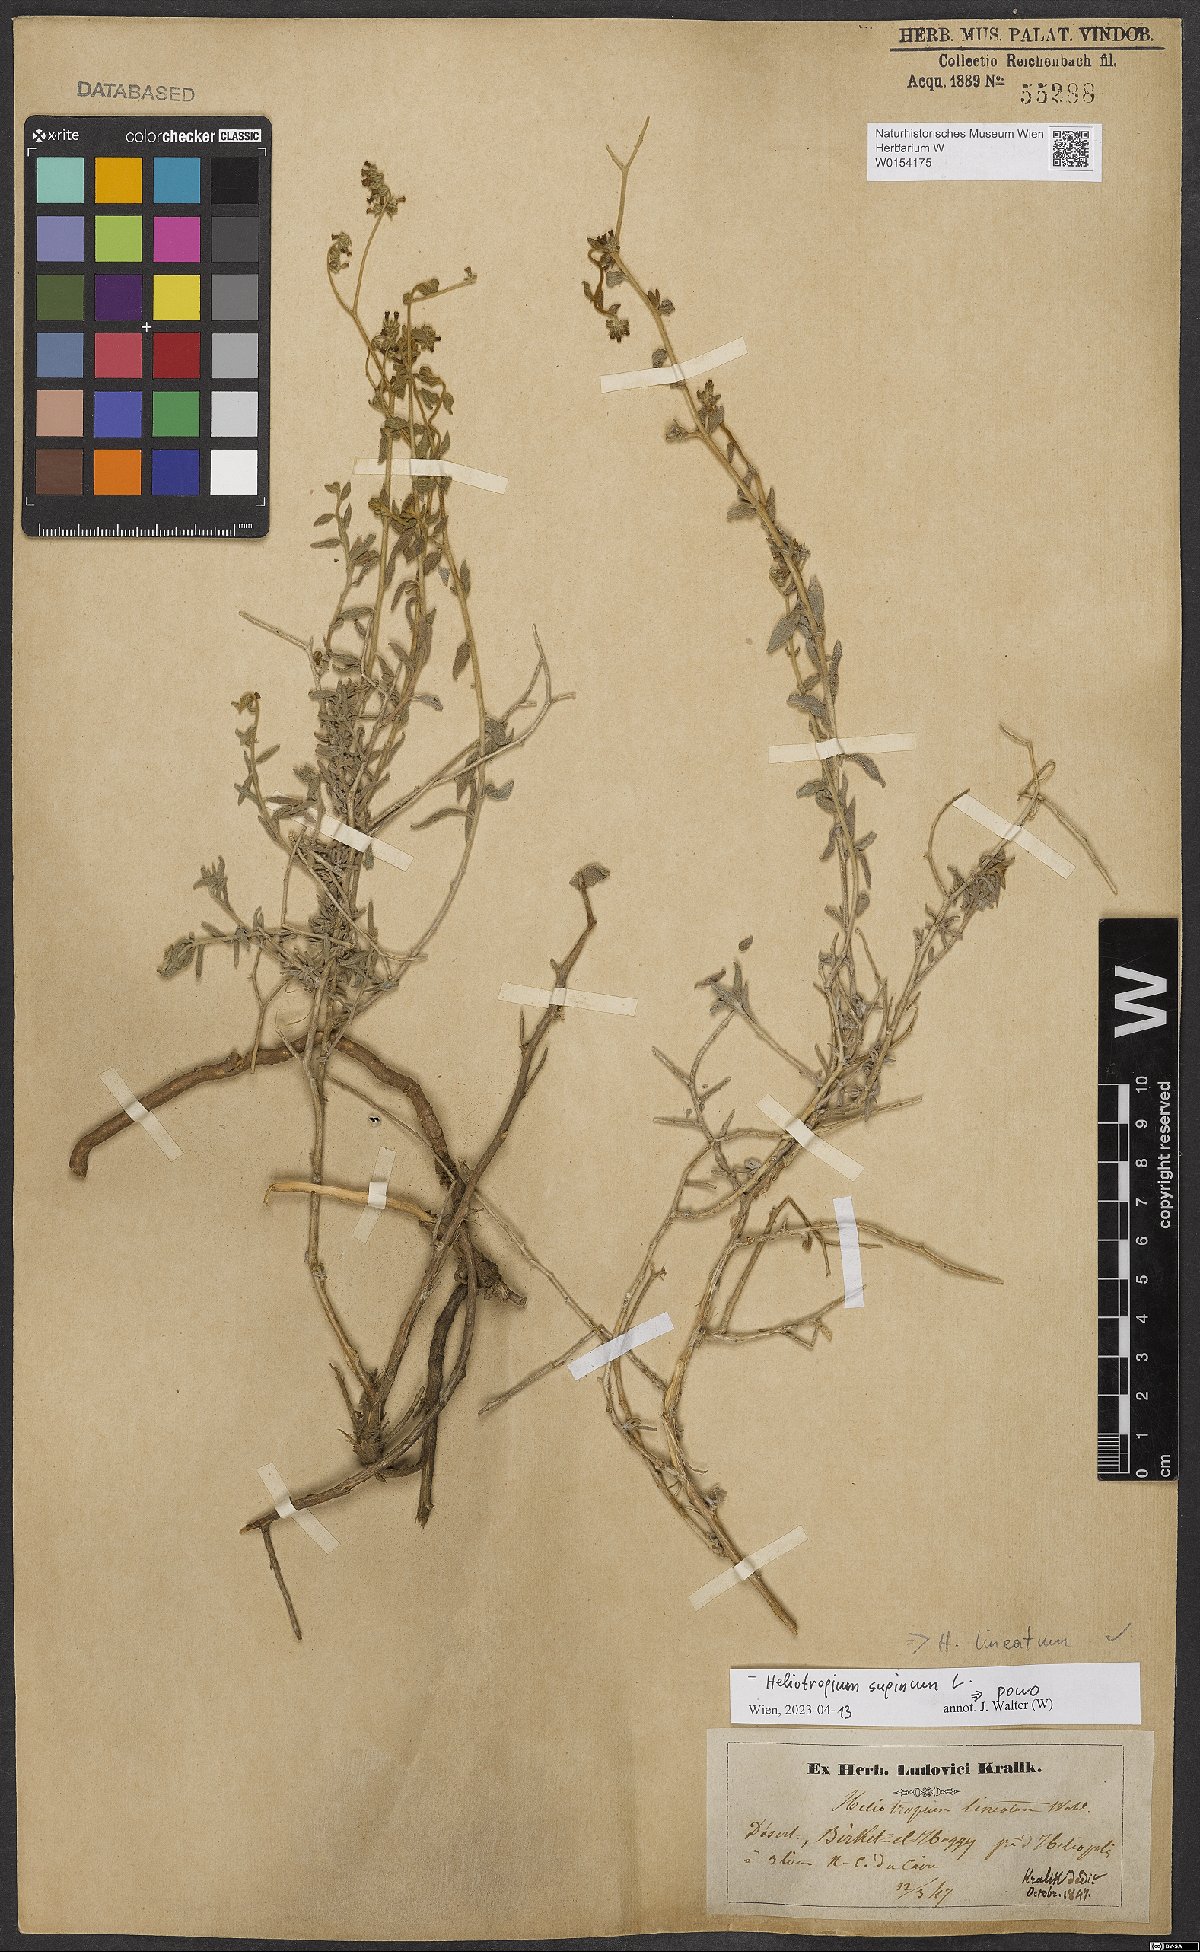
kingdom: Plantae
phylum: Tracheophyta
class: Magnoliopsida
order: Boraginales
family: Heliotropiaceae
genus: Heliotropium
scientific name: Heliotropium supinum
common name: Dwarf heliotrope
